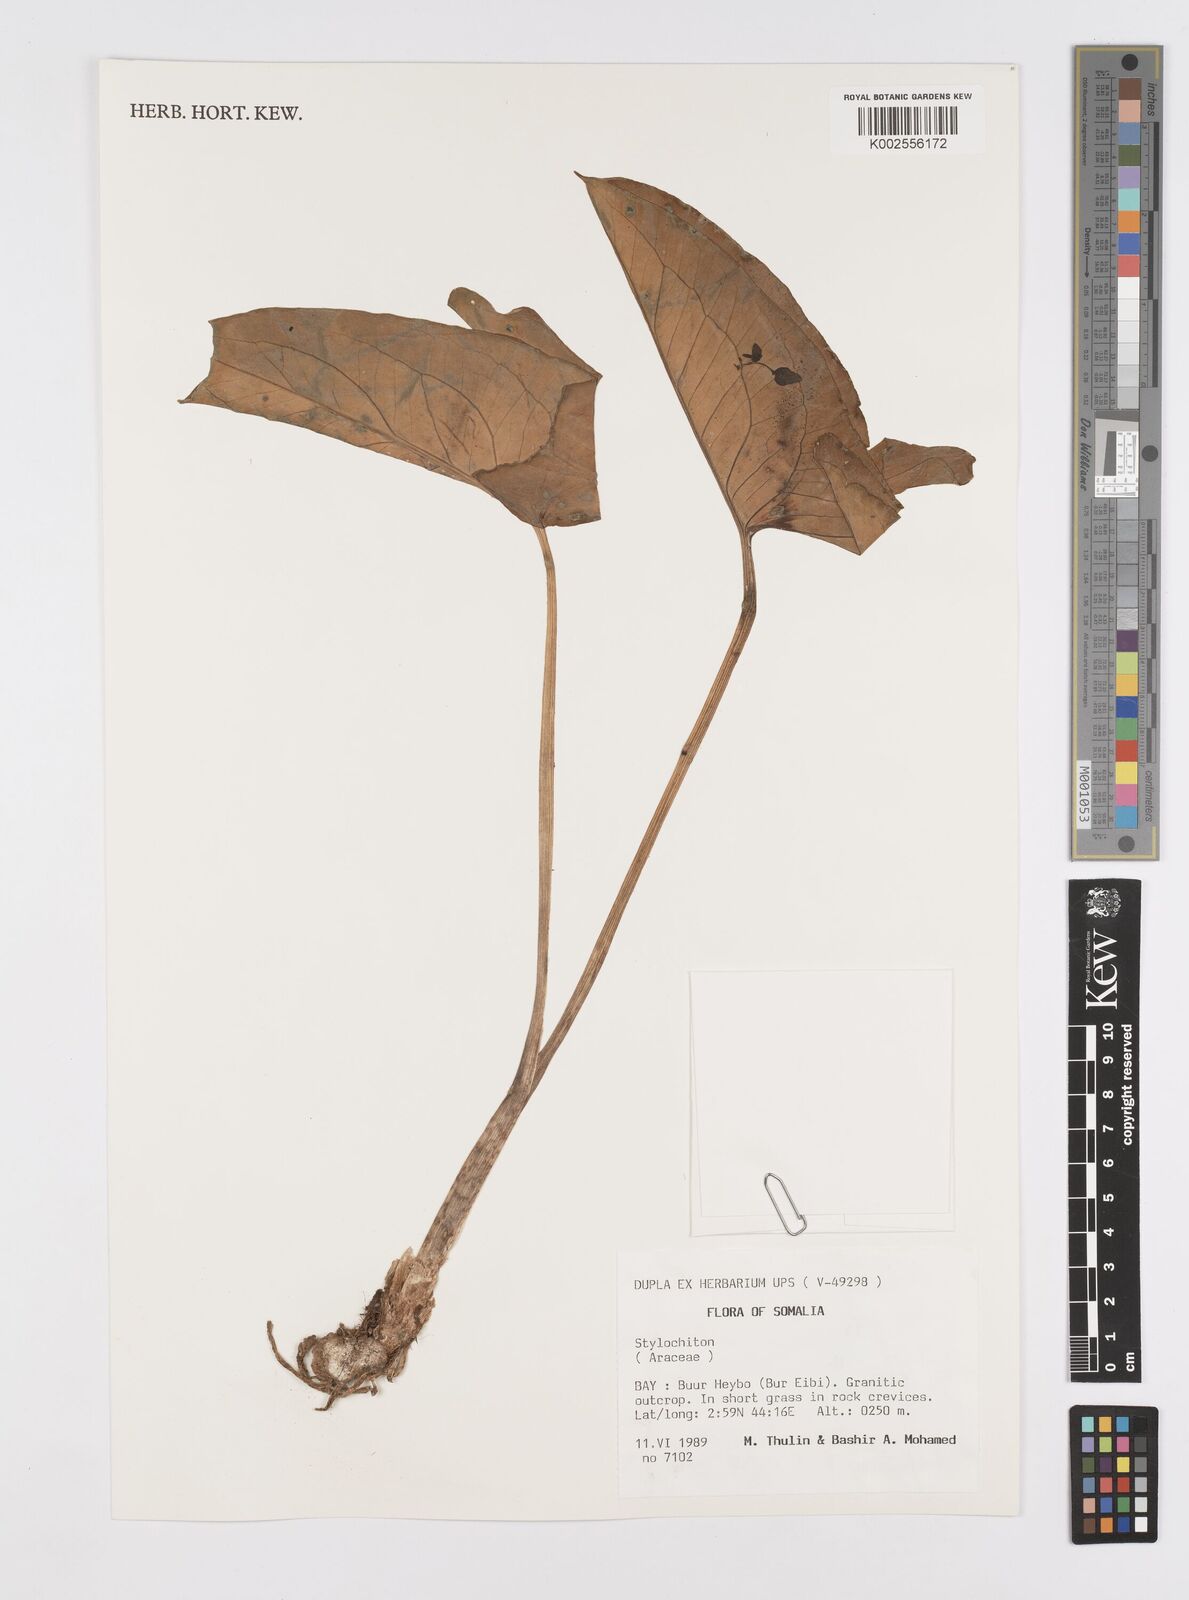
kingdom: Plantae
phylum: Tracheophyta
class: Liliopsida
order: Alismatales
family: Araceae
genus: Stylochaeton
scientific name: Stylochaeton natalense
